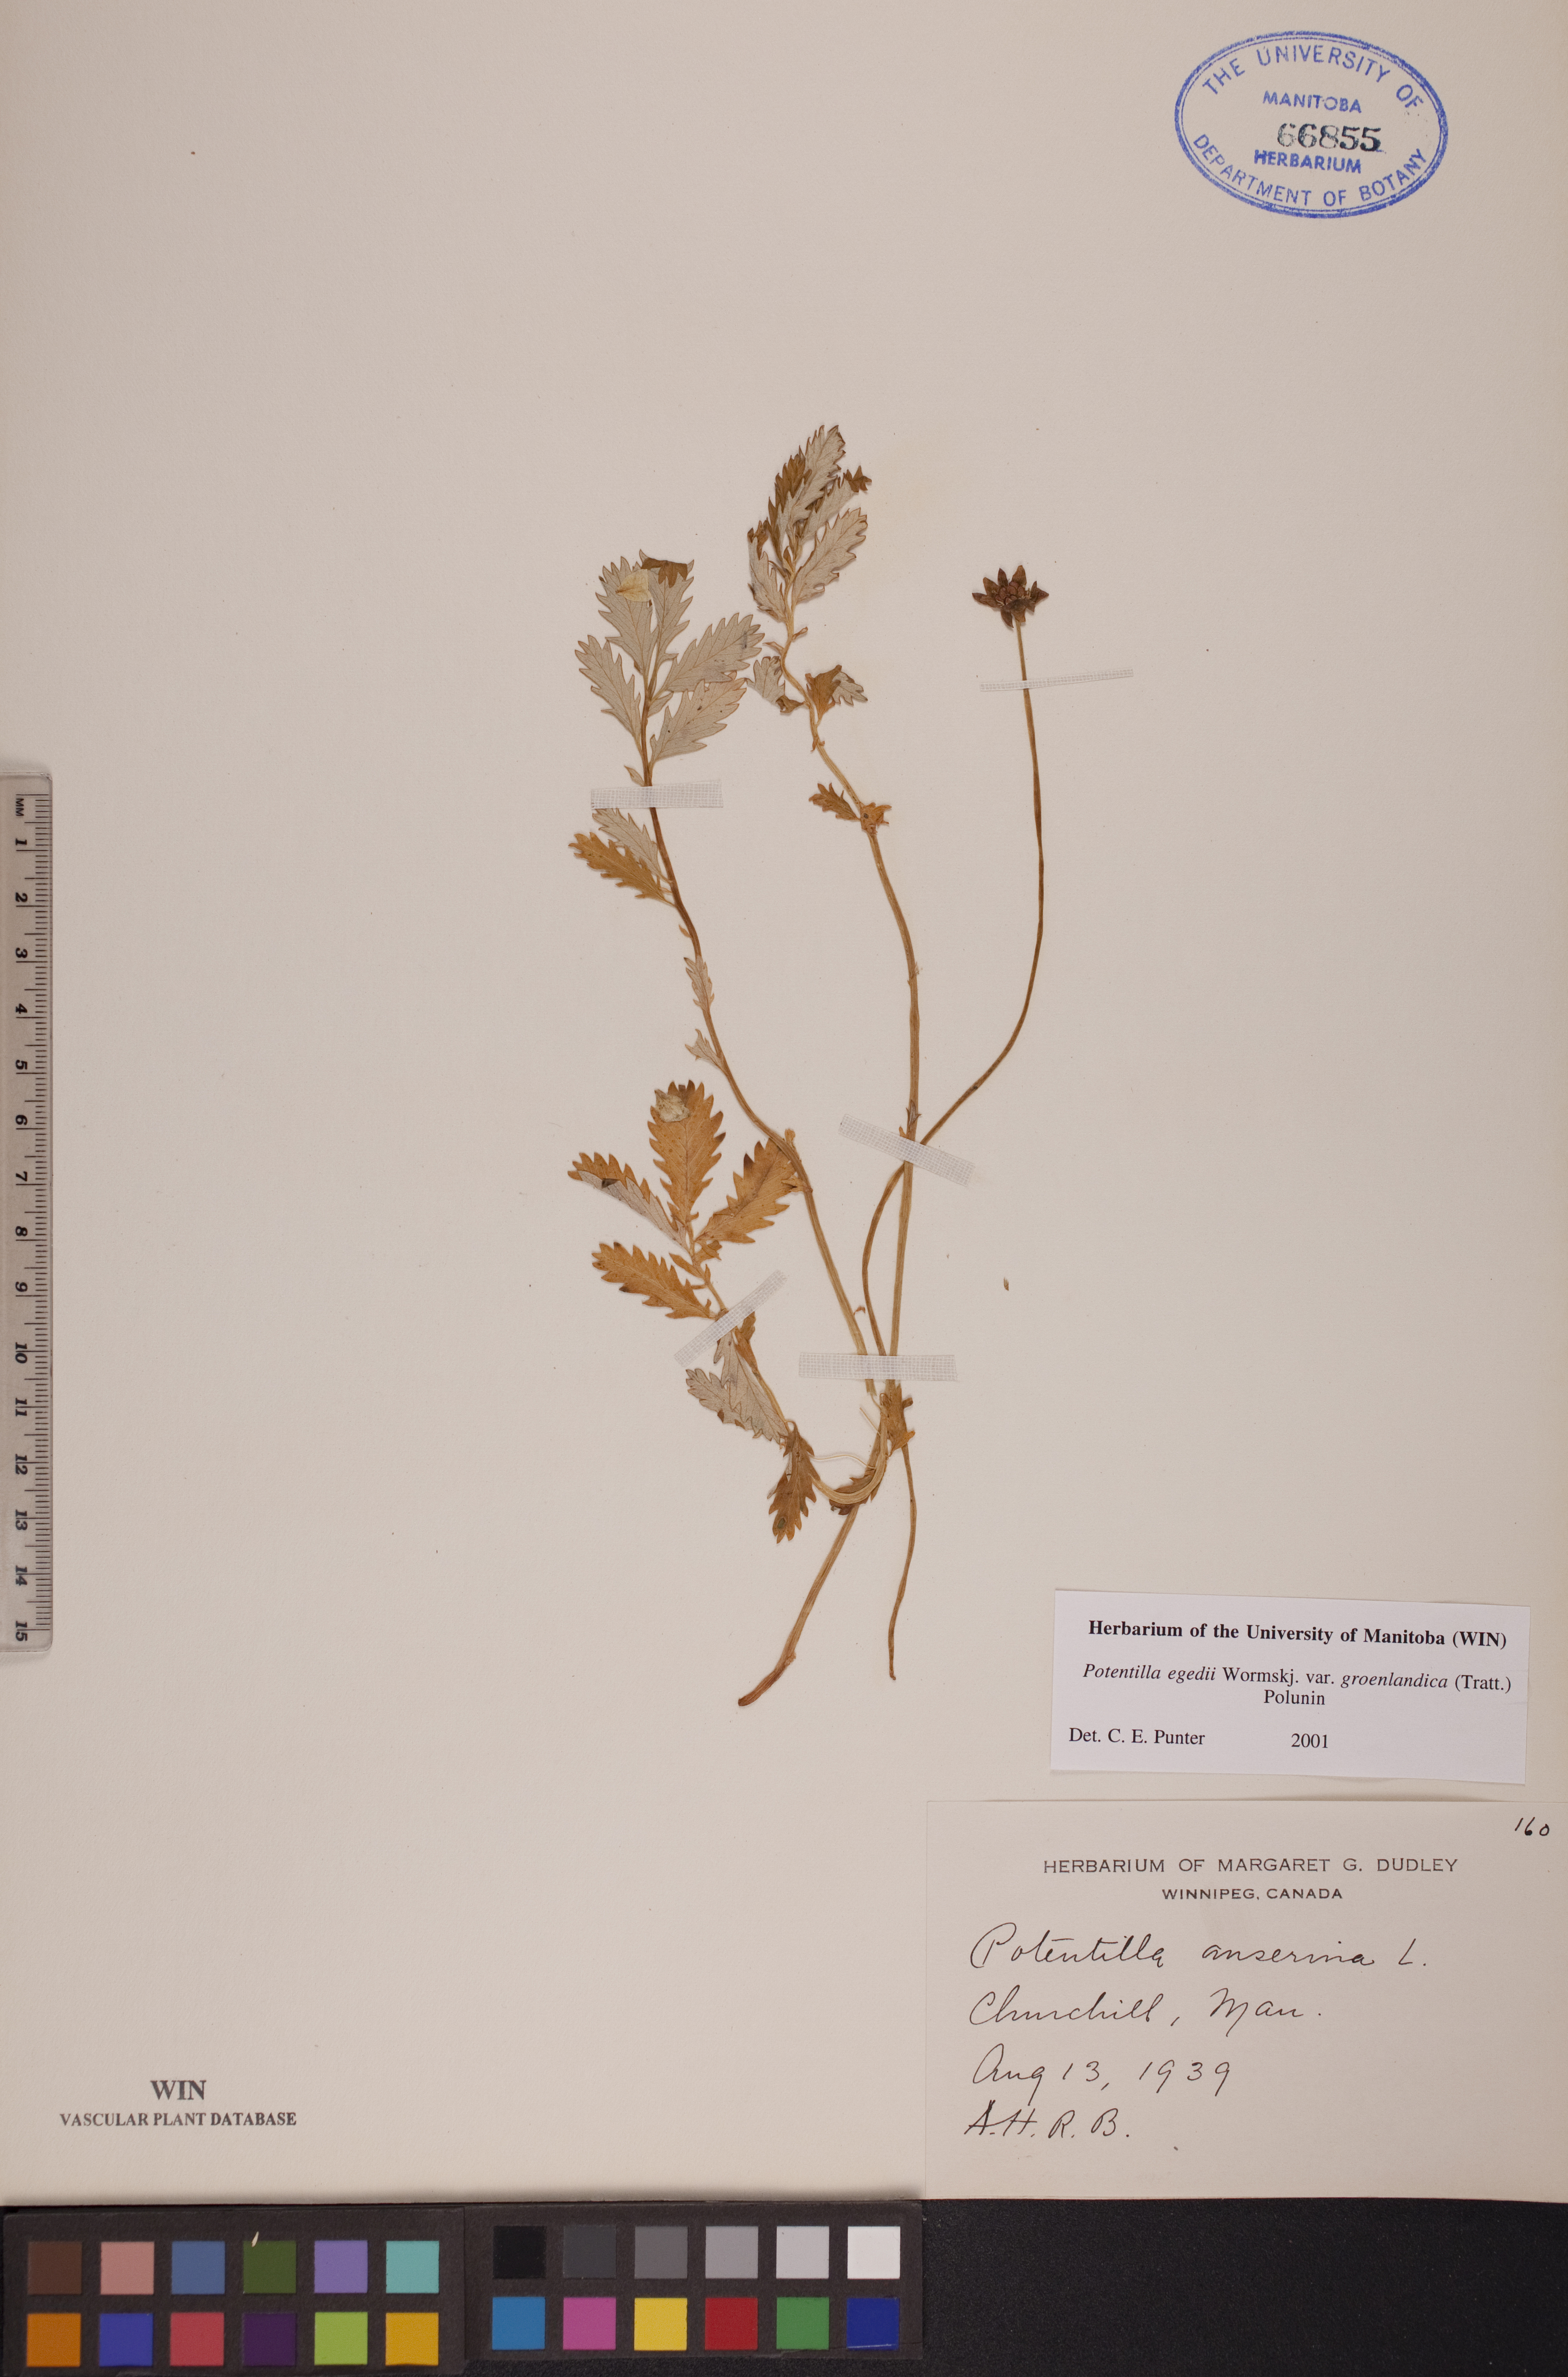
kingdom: Plantae
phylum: Tracheophyta
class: Magnoliopsida
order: Rosales
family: Rosaceae
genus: Argentina
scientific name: Argentina anserina
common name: Common silverweed
